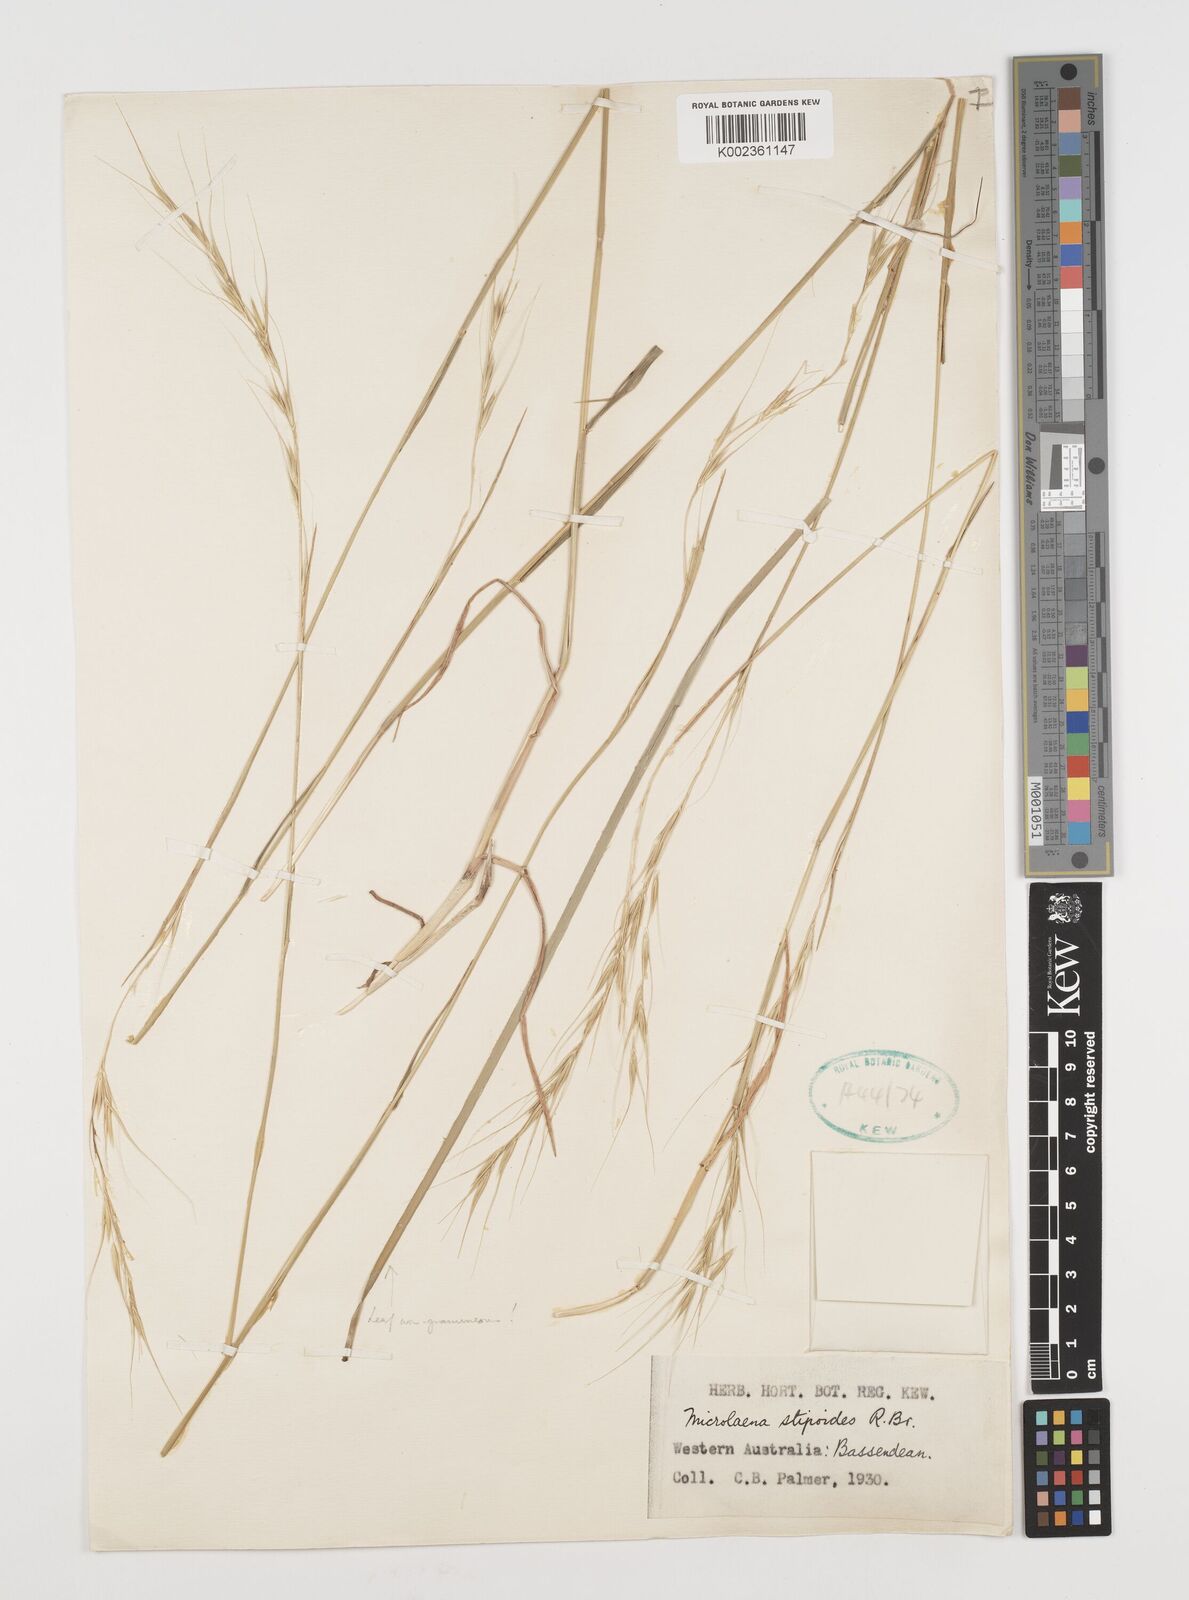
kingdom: Plantae
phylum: Tracheophyta
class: Liliopsida
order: Poales
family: Poaceae
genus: Microlaena
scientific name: Microlaena stipoides
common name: Meadow ricegrass
